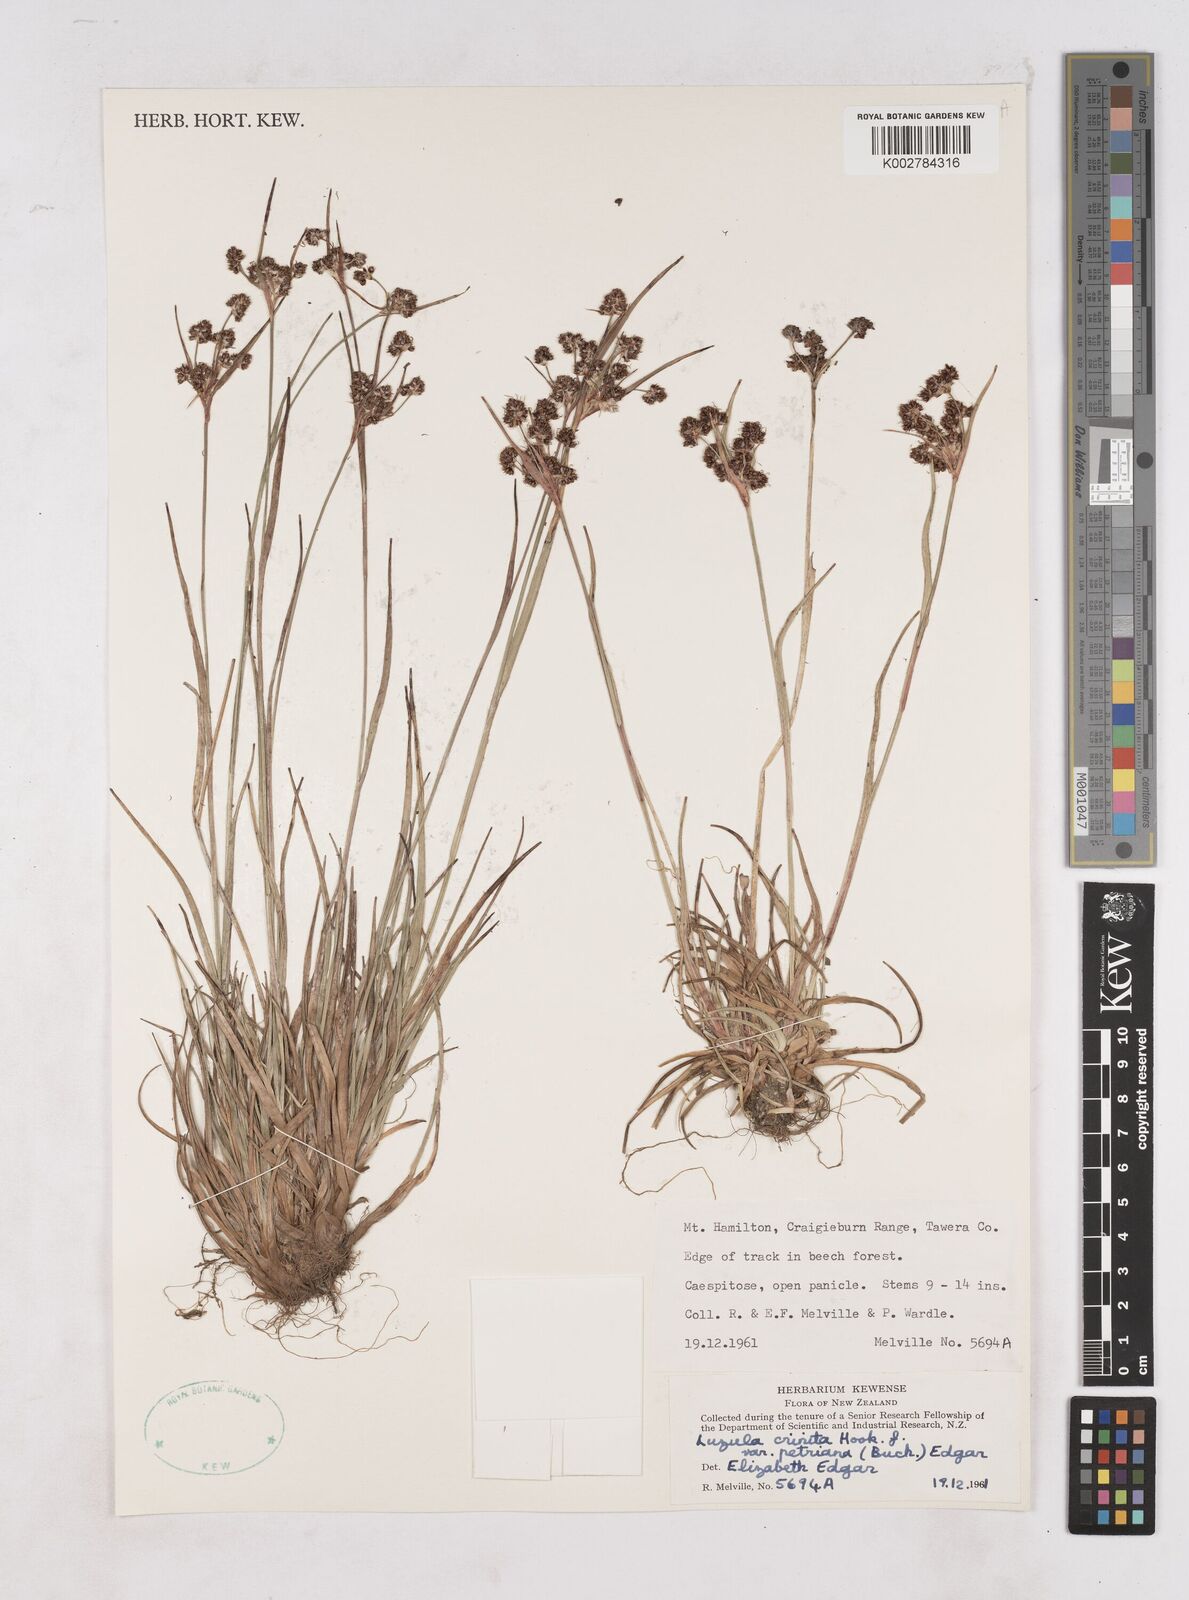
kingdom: Plantae
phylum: Tracheophyta
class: Liliopsida
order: Poales
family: Juncaceae
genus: Luzula
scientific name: Luzula crenulata
